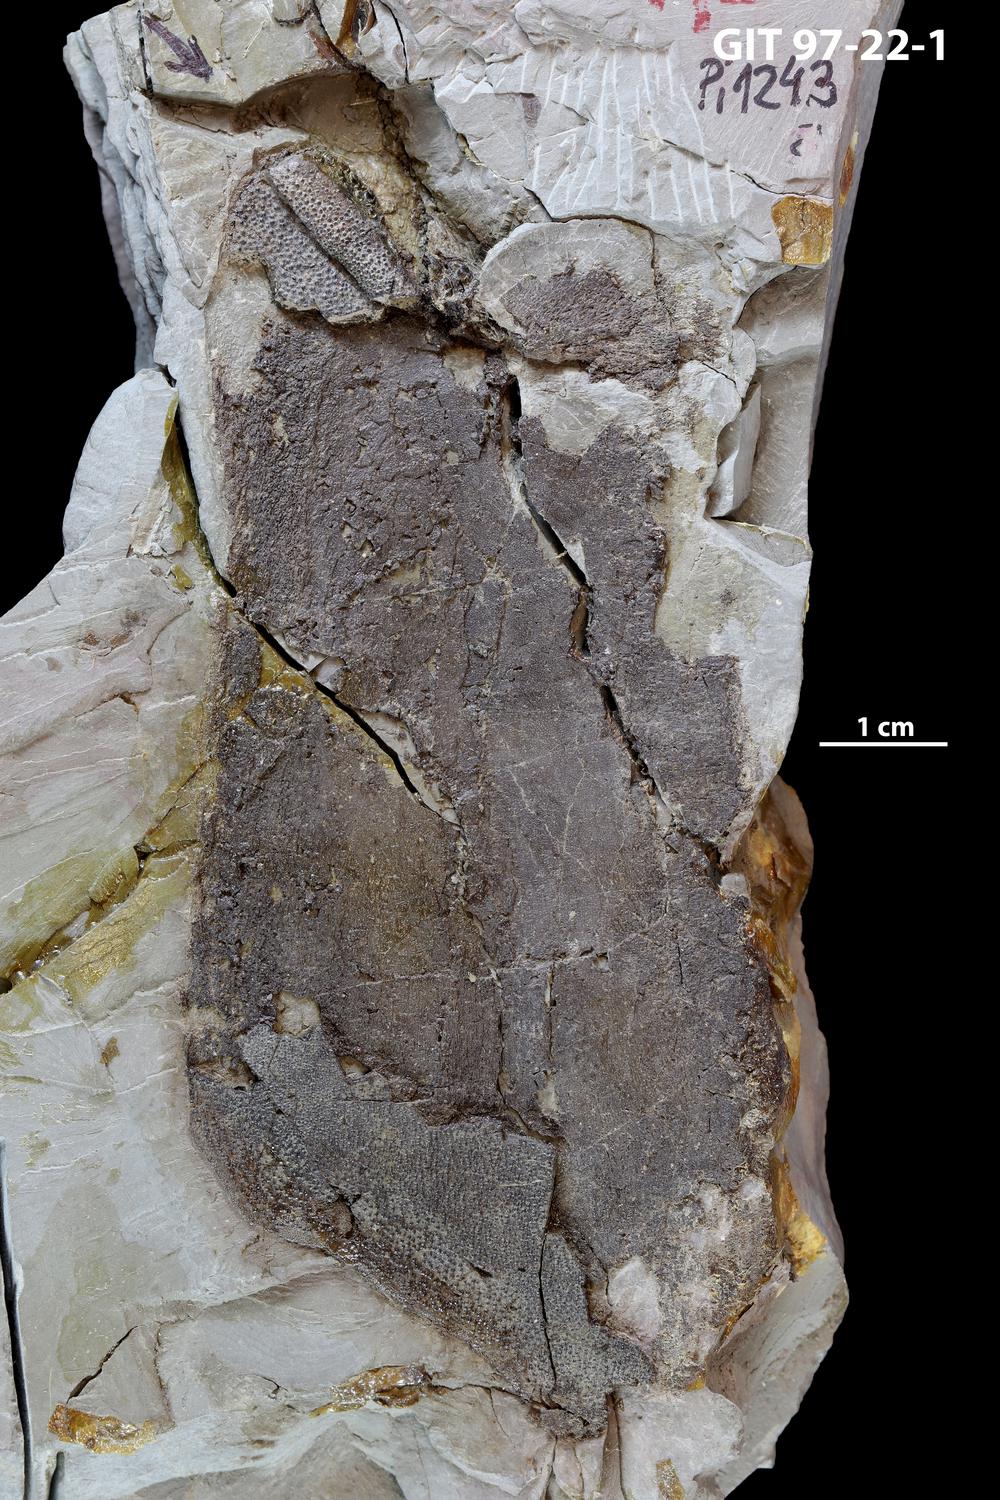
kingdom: Animalia
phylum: Chordata
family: Holonematidae
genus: Holonema
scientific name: Holonema
